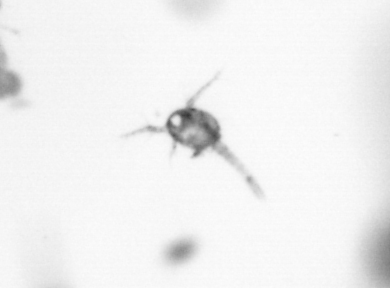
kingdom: Animalia
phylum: Arthropoda
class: Copepoda
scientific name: Copepoda
